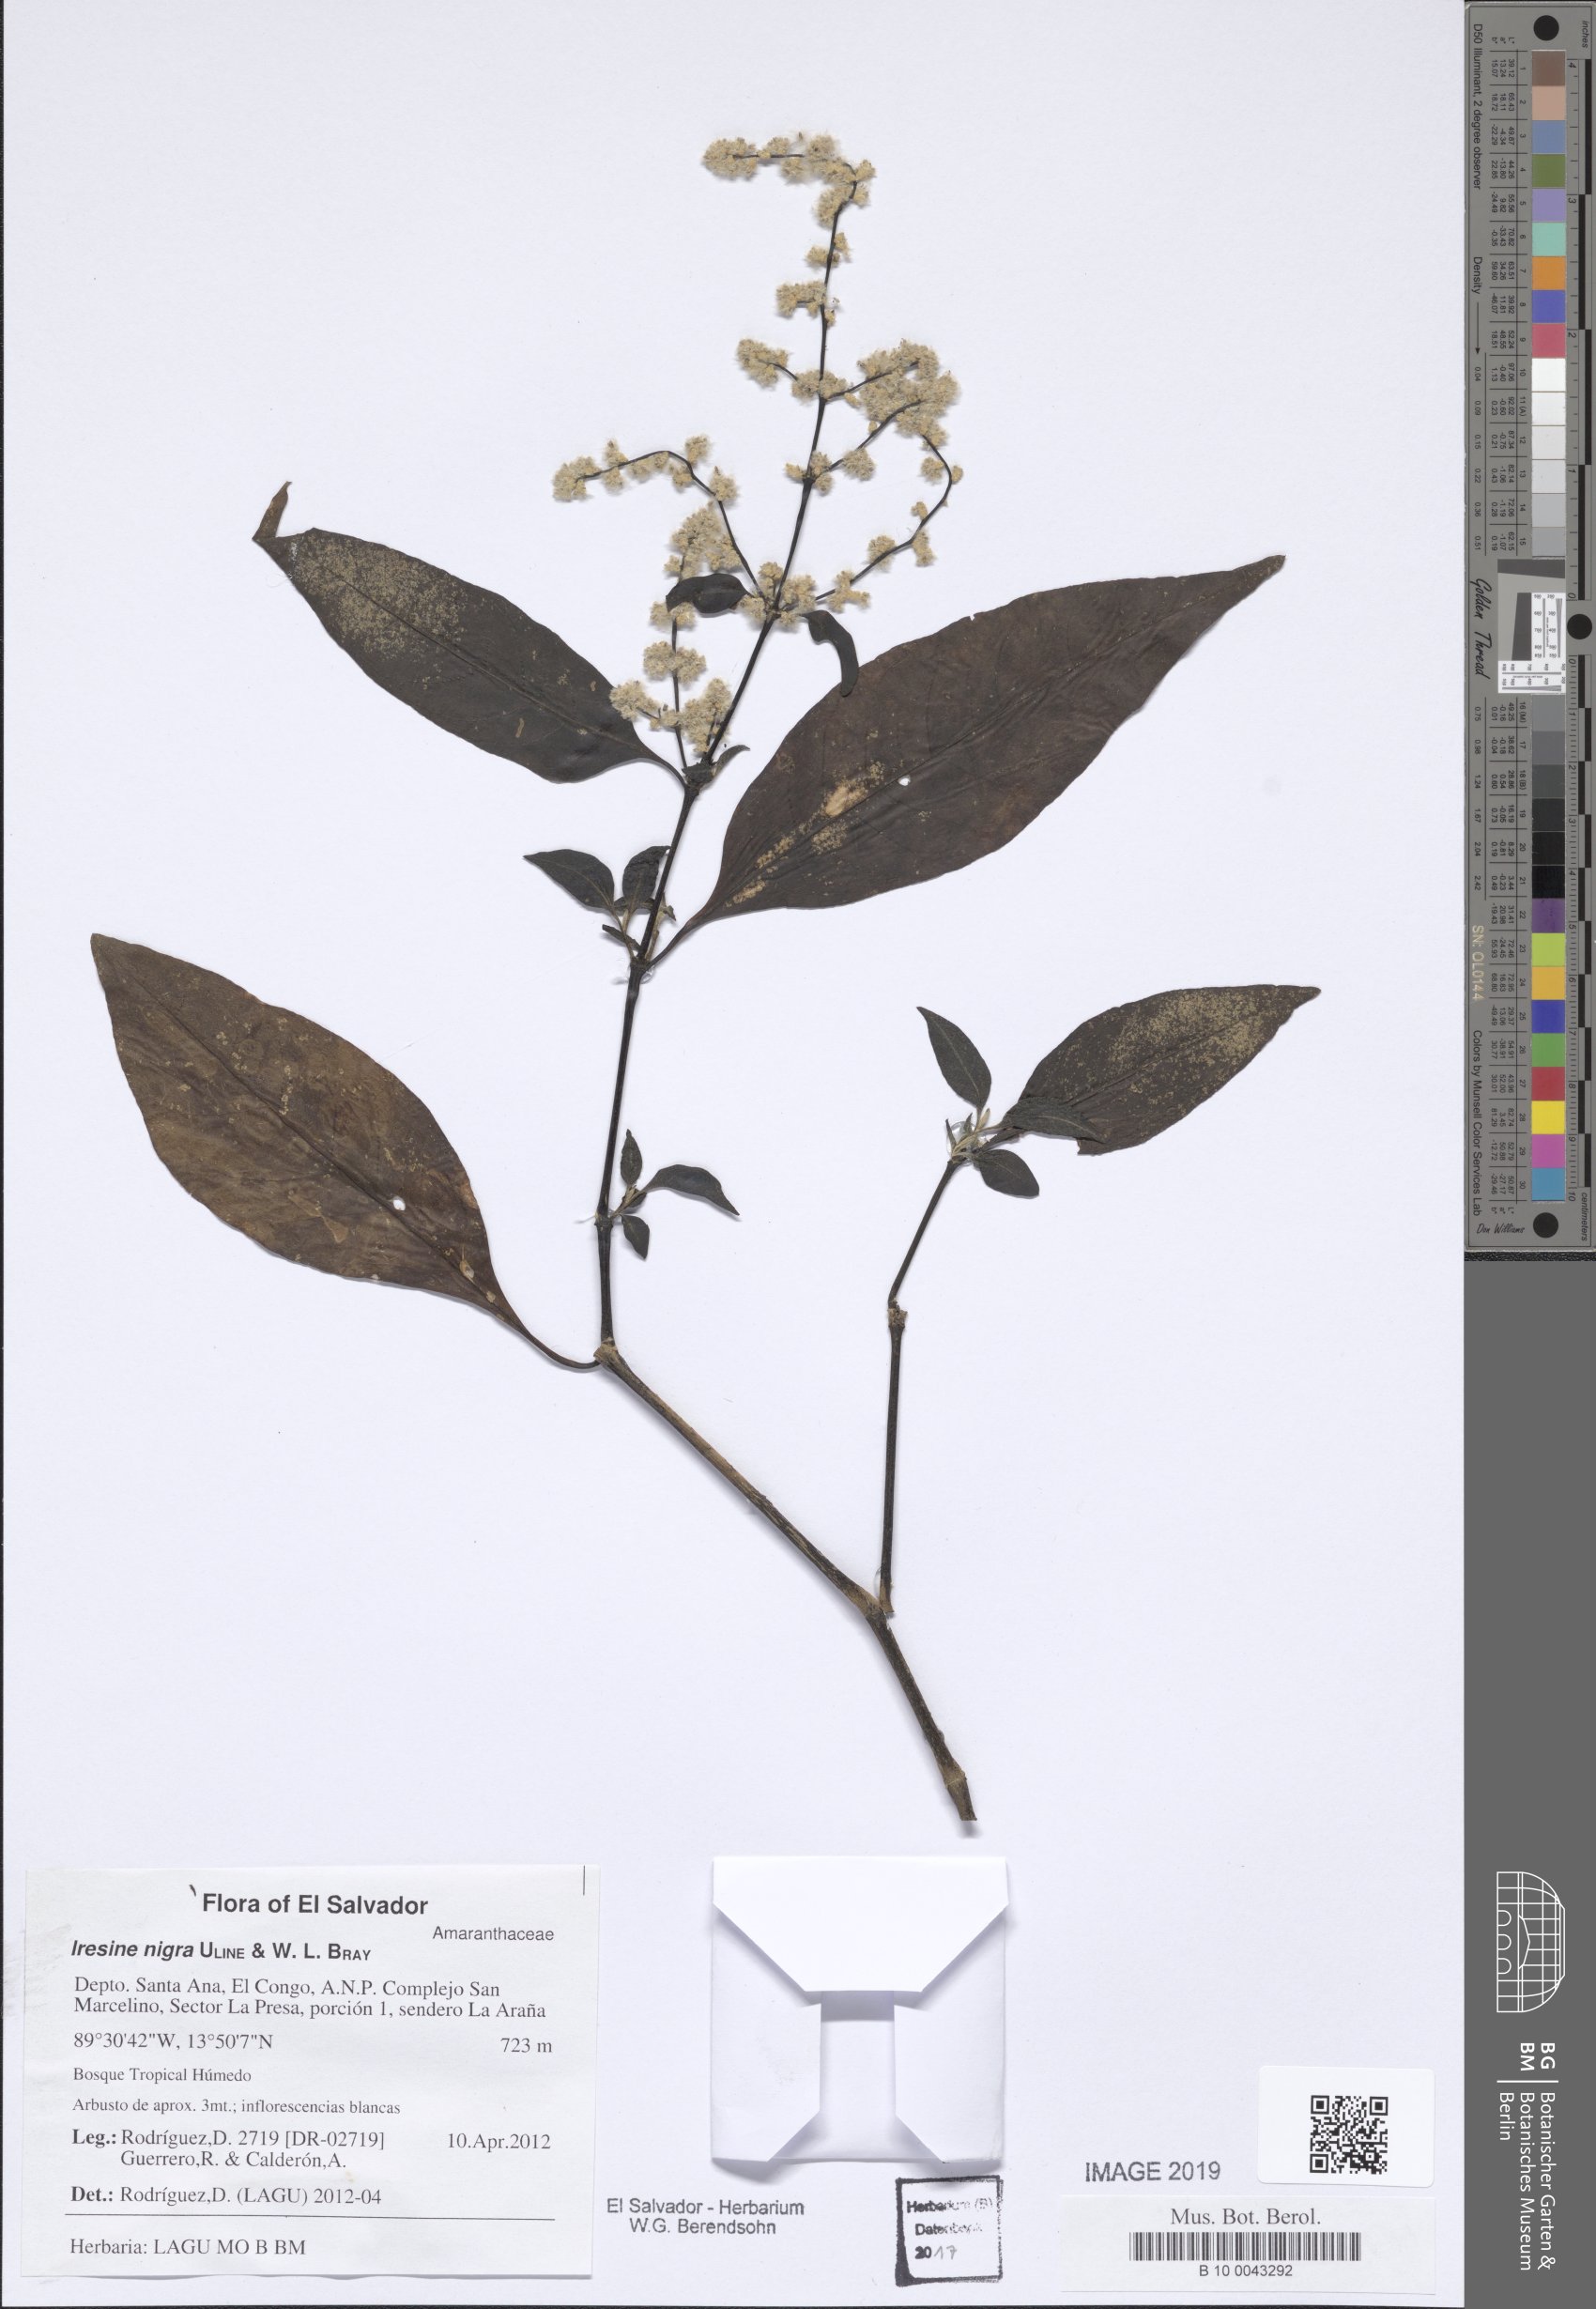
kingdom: Plantae
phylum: Tracheophyta
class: Magnoliopsida
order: Caryophyllales
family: Amaranthaceae
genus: Iresine
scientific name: Iresine nigra
